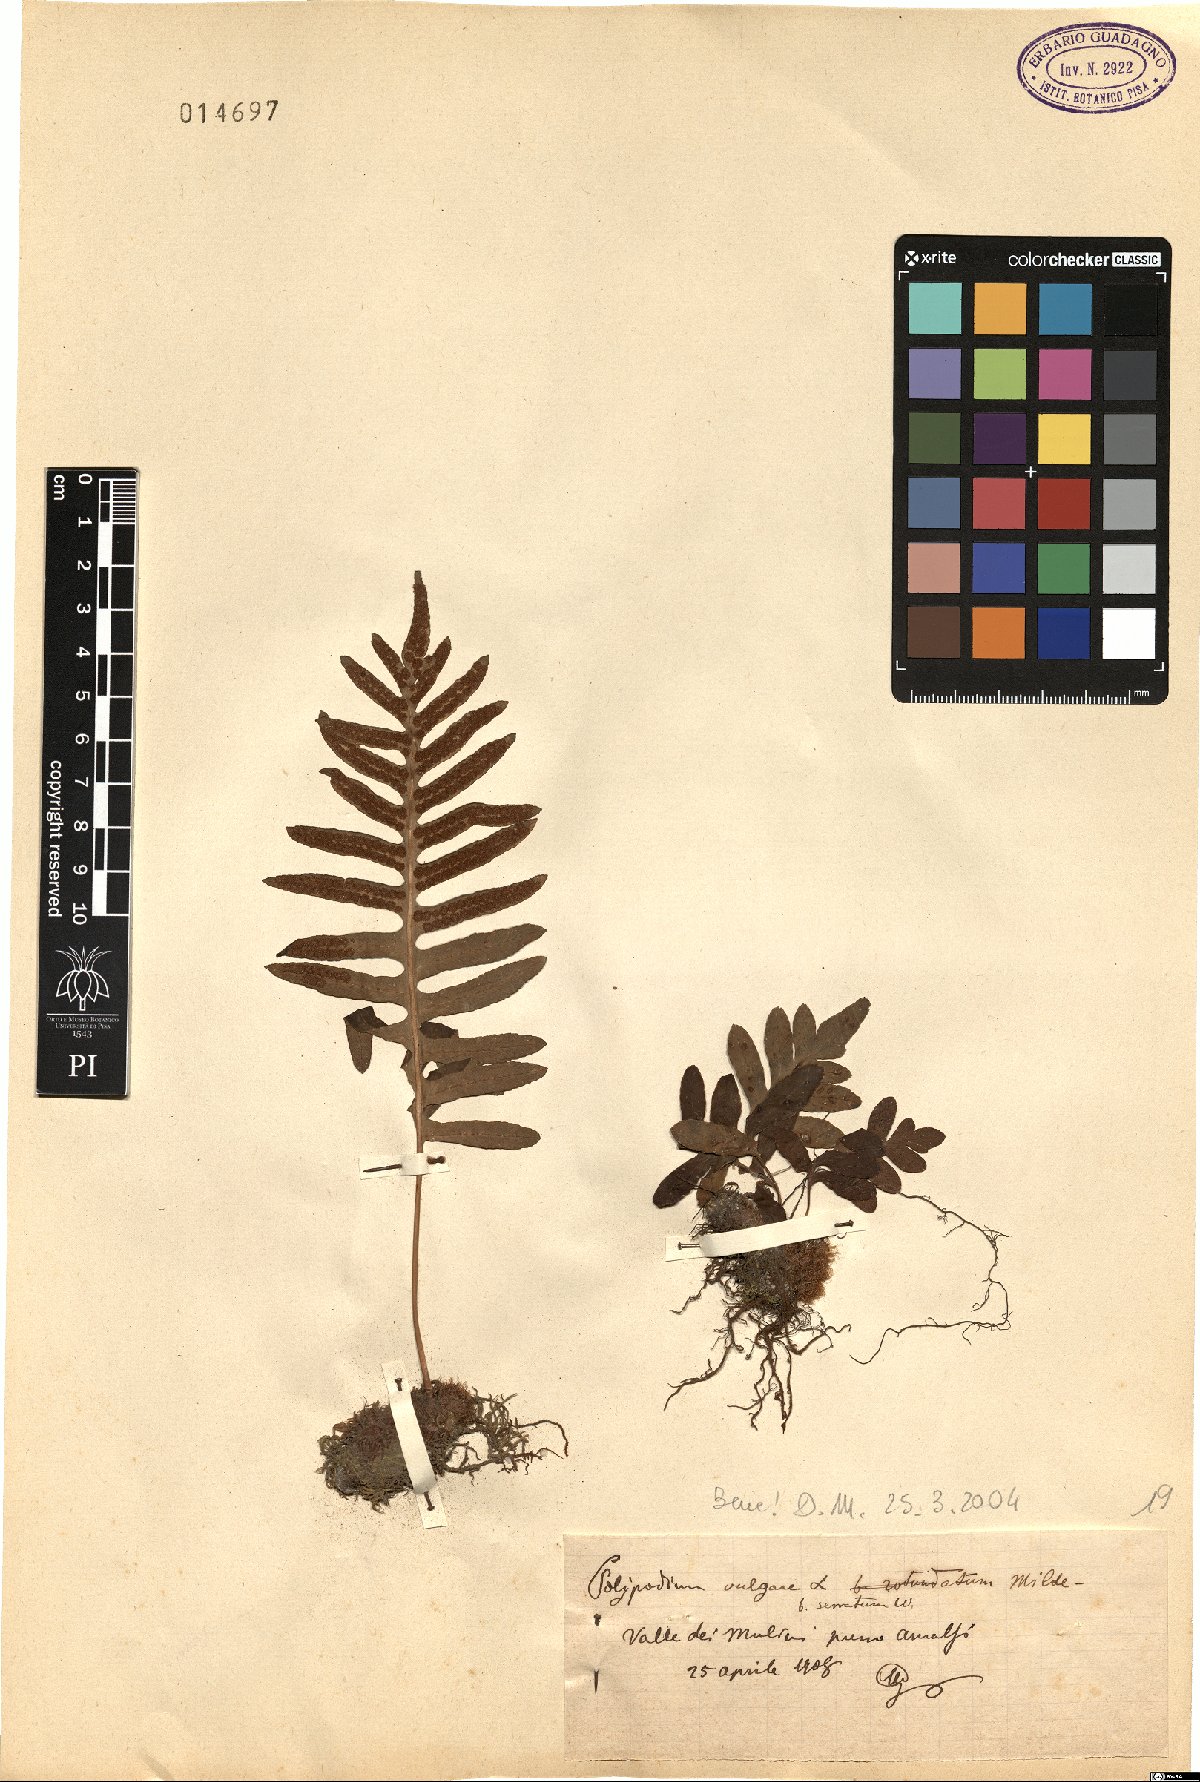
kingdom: Plantae
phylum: Tracheophyta
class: Polypodiopsida
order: Polypodiales
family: Polypodiaceae
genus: Polypodium
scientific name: Polypodium cambricum
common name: Southern polypody
